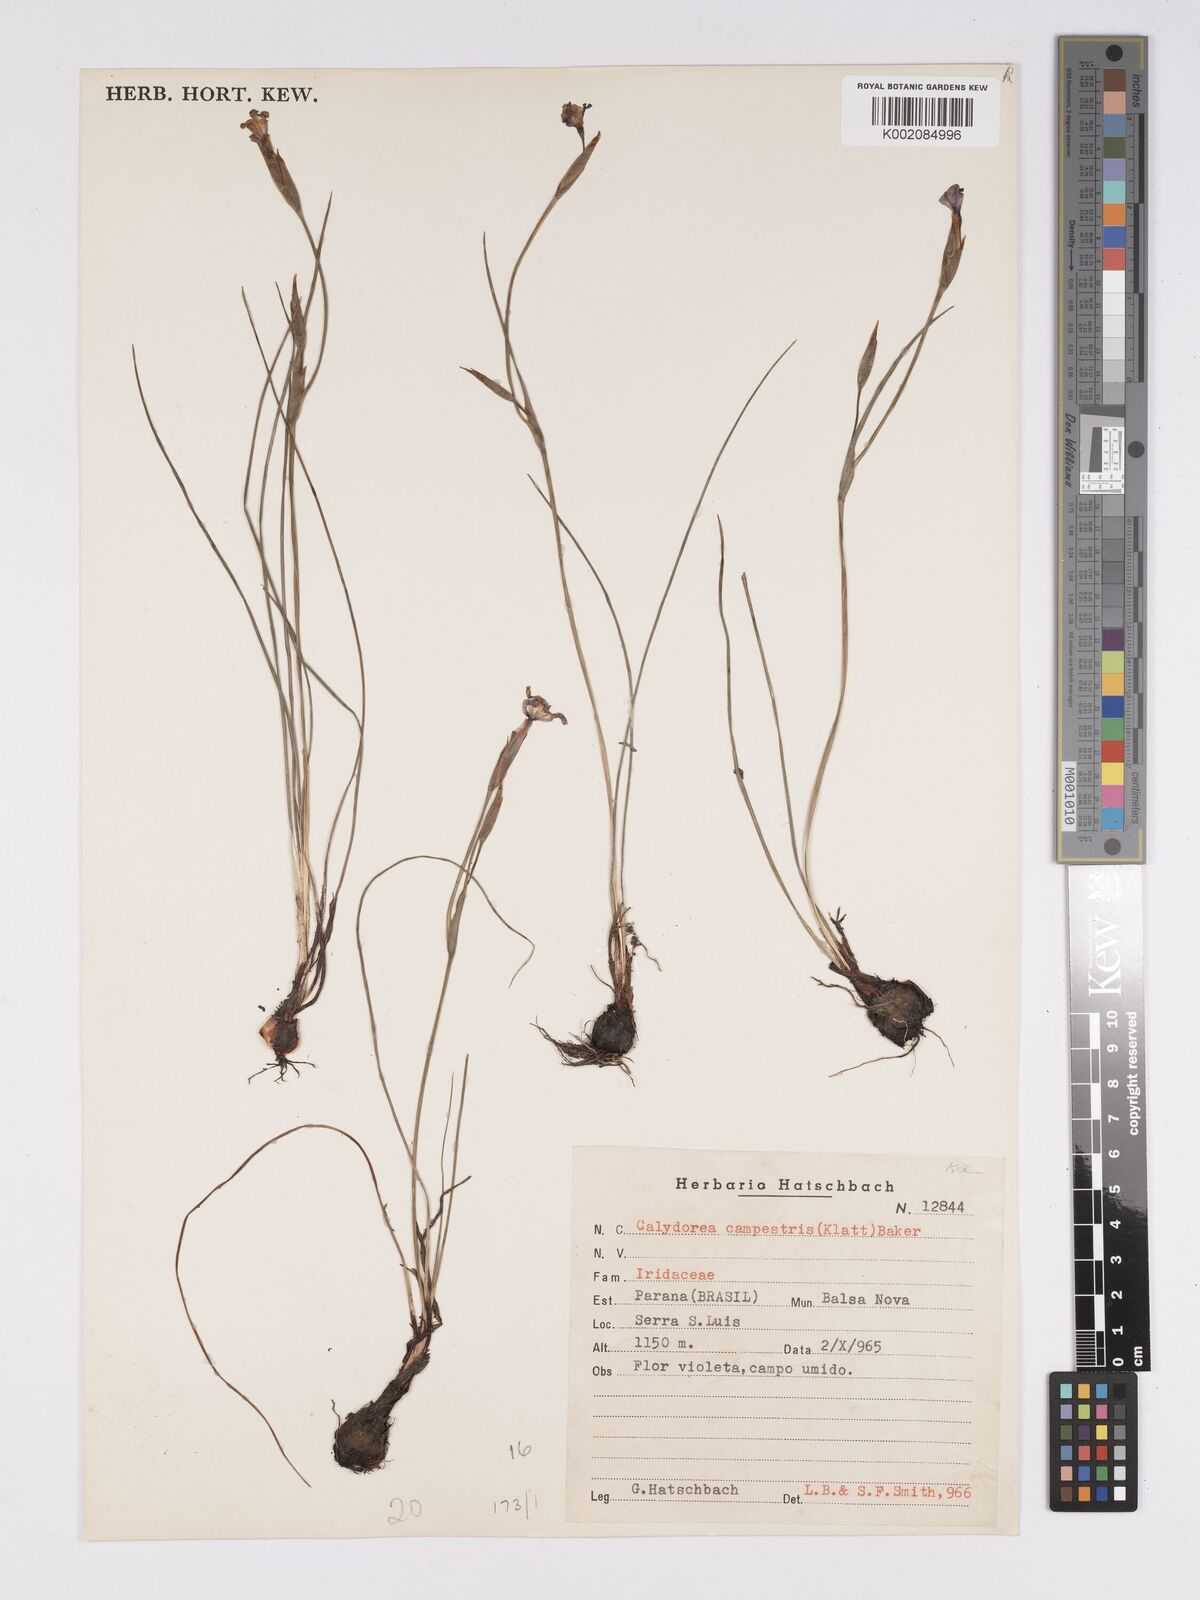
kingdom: Plantae
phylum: Tracheophyta
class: Liliopsida
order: Asparagales
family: Iridaceae
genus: Calydorea
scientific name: Calydorea campestris
